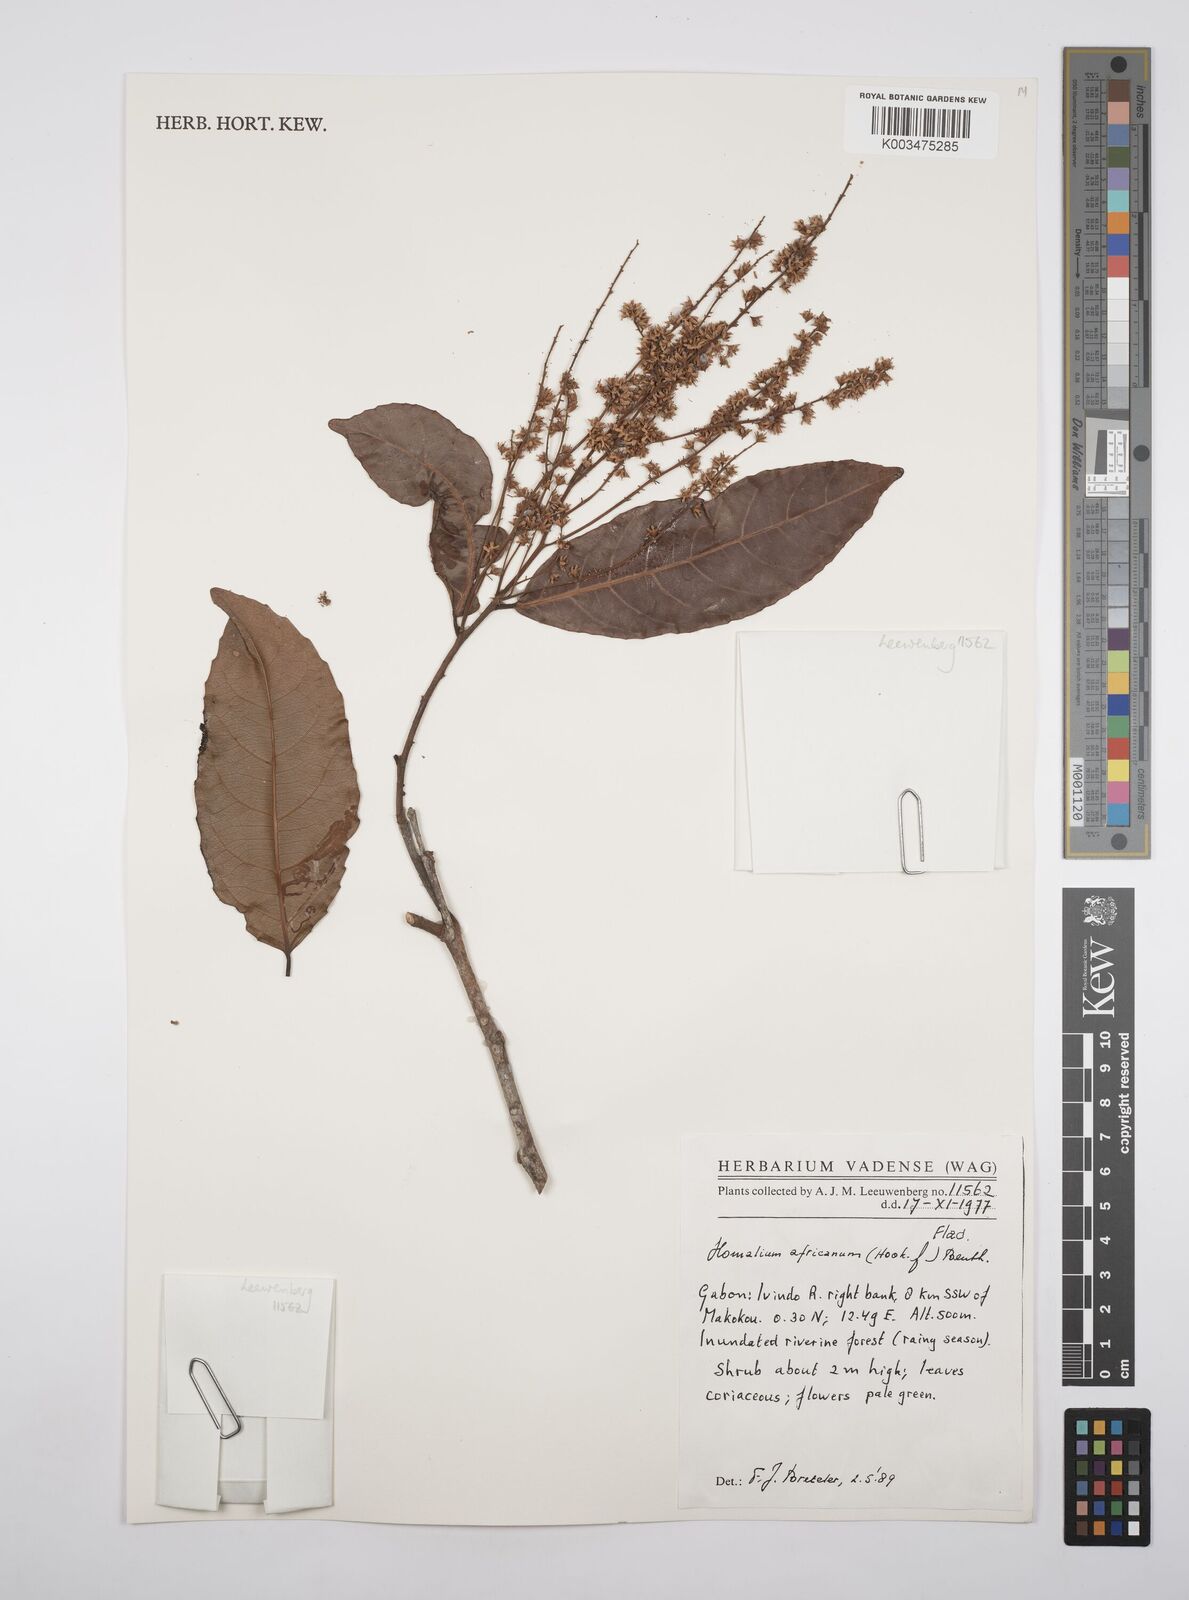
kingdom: Plantae
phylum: Tracheophyta
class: Magnoliopsida
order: Malpighiales
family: Salicaceae
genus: Homalium
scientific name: Homalium africanum
